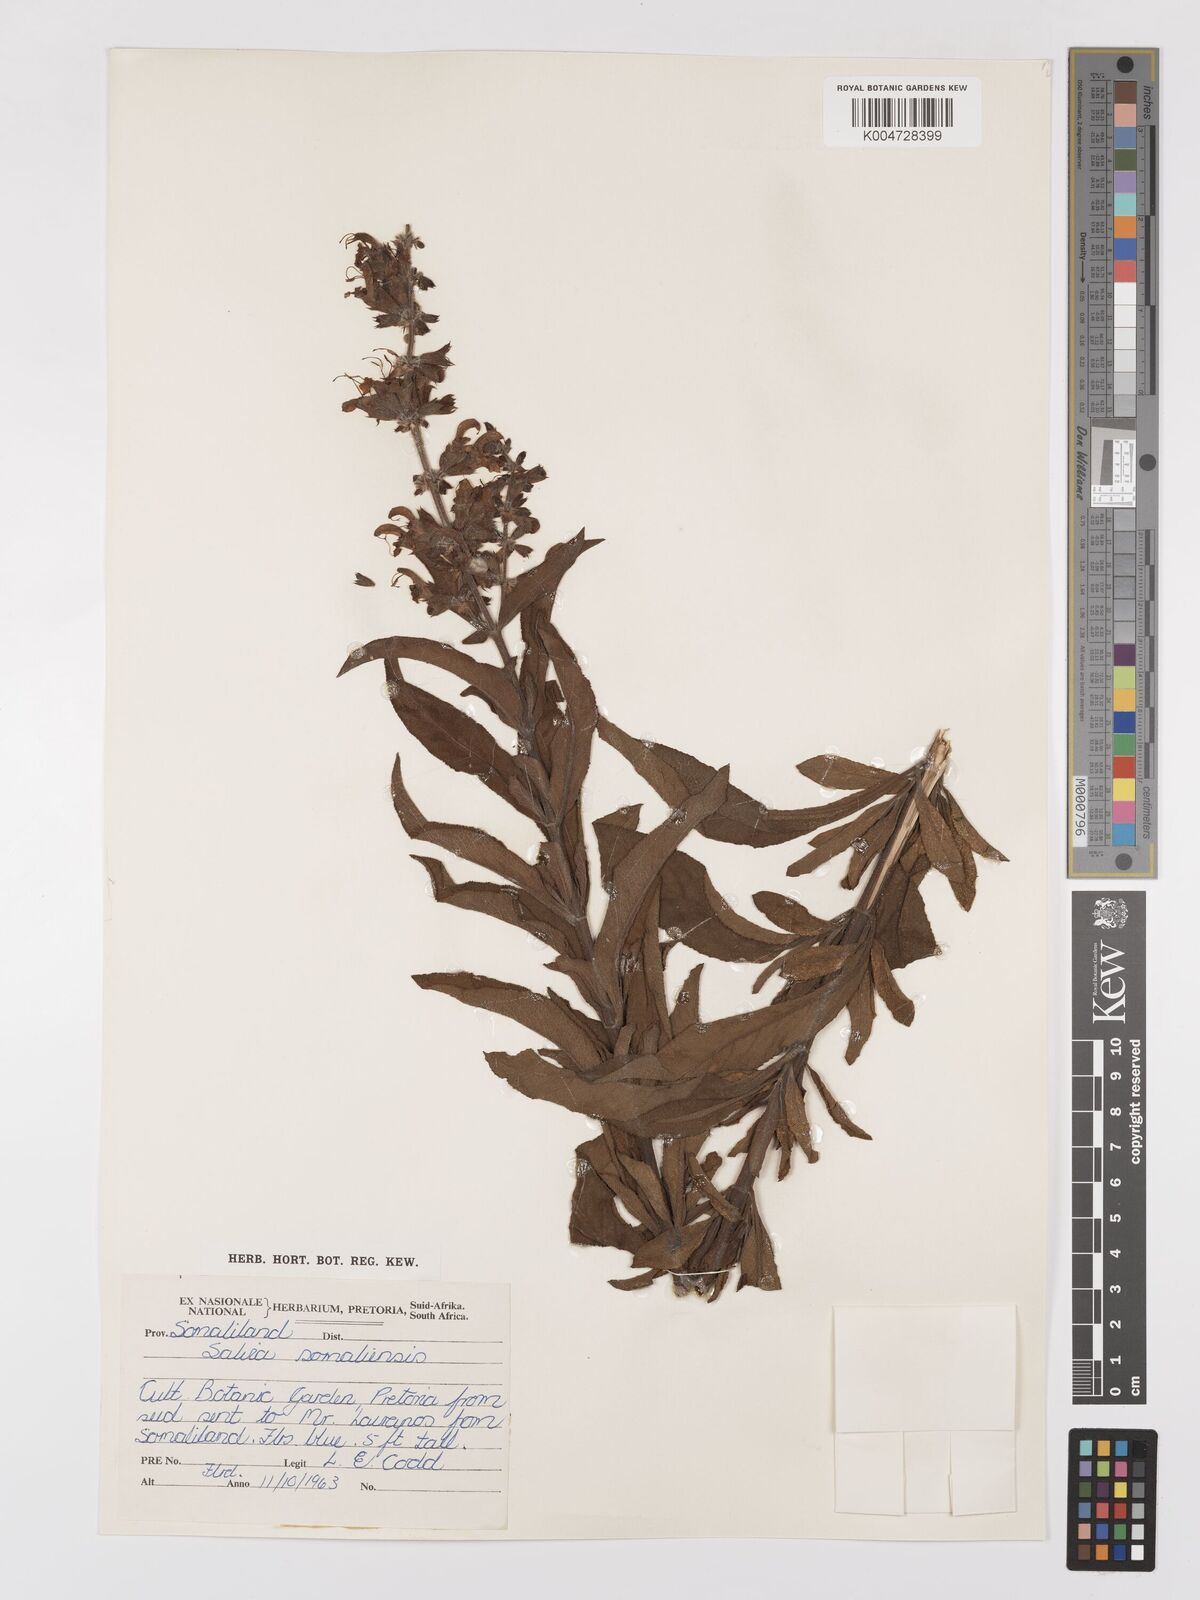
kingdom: Plantae
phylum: Tracheophyta
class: Magnoliopsida
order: Lamiales
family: Lamiaceae
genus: Salvia
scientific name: Salvia somalensis
